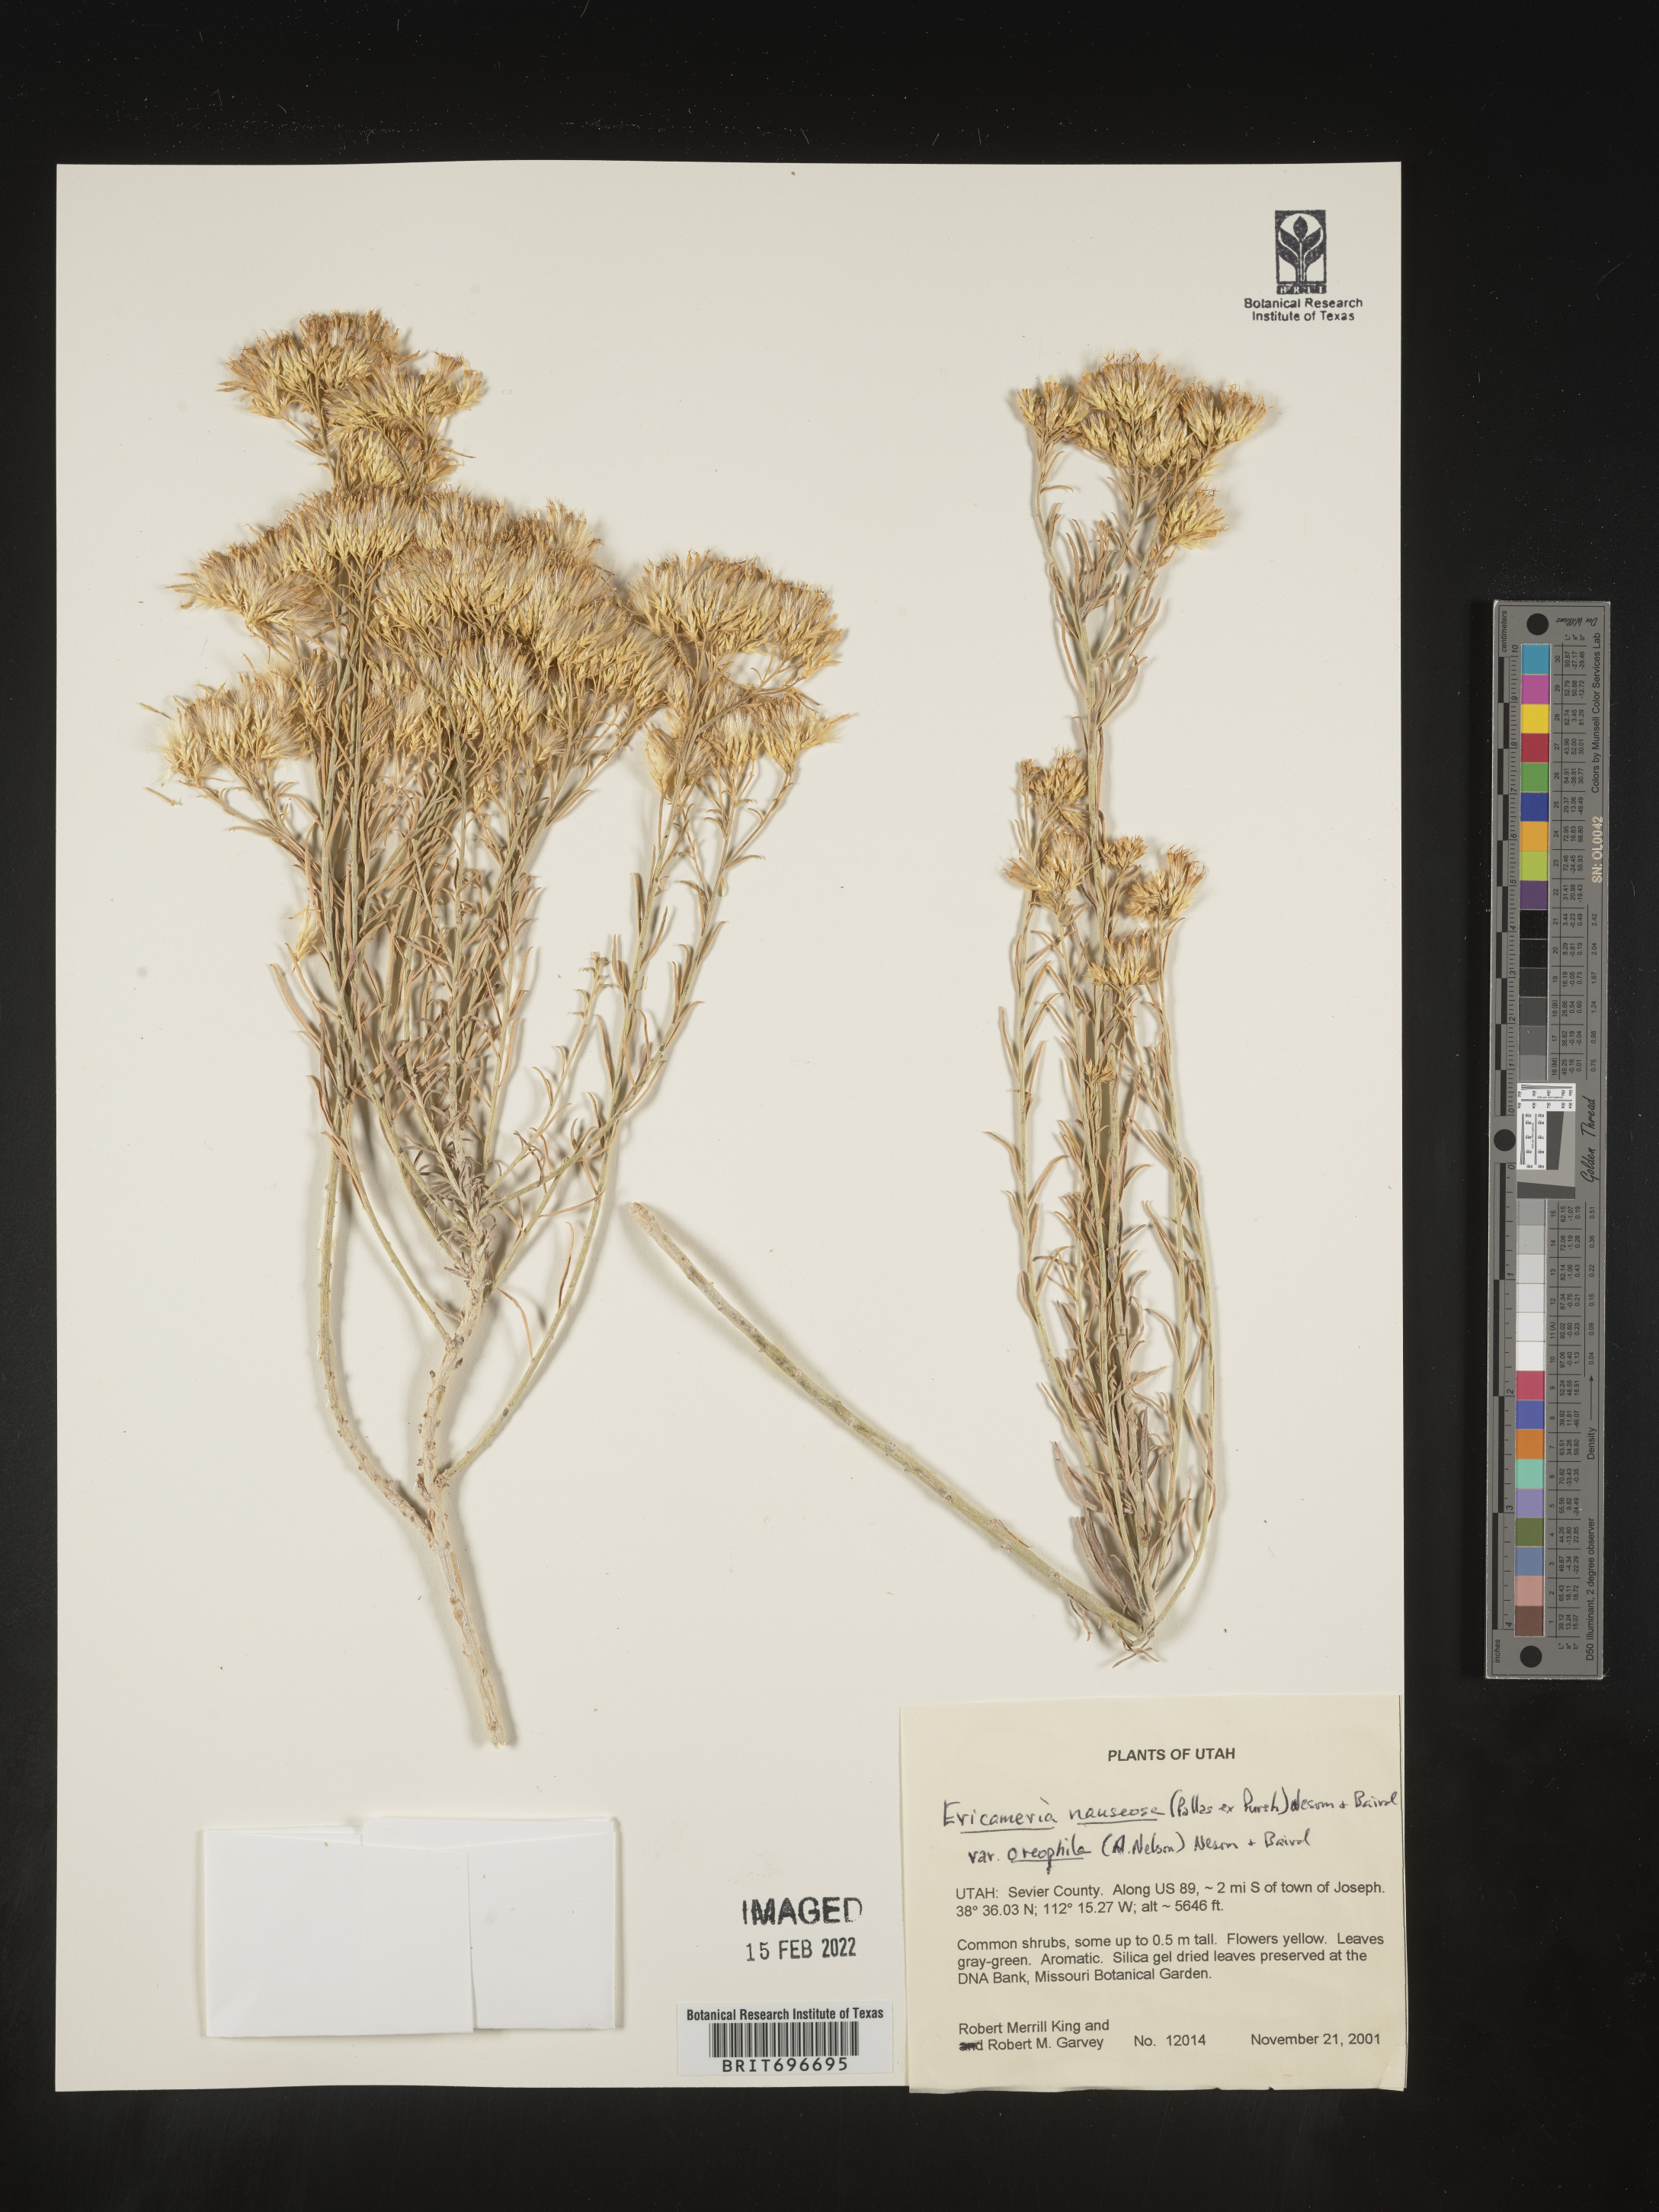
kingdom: Plantae
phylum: Tracheophyta
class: Magnoliopsida
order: Asterales
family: Asteraceae
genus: Ericameria
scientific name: Ericameria nauseosa
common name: Rubber rabbitbrush
